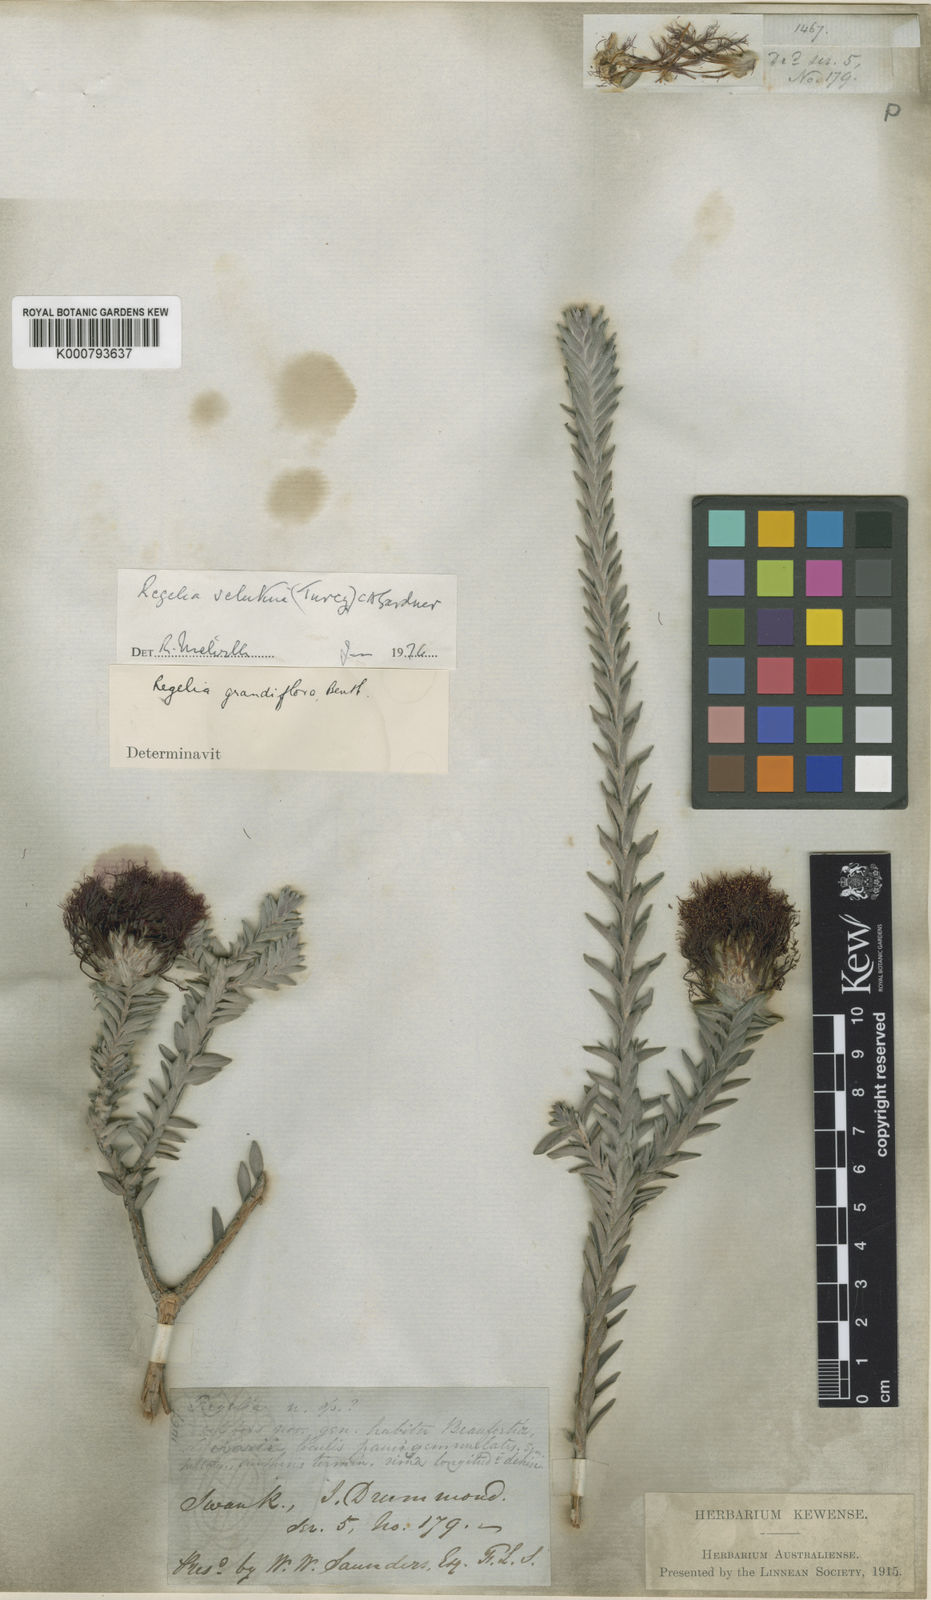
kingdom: Plantae
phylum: Tracheophyta
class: Magnoliopsida
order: Myrtales
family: Myrtaceae
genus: Melaleuca
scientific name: Melaleuca velutina
